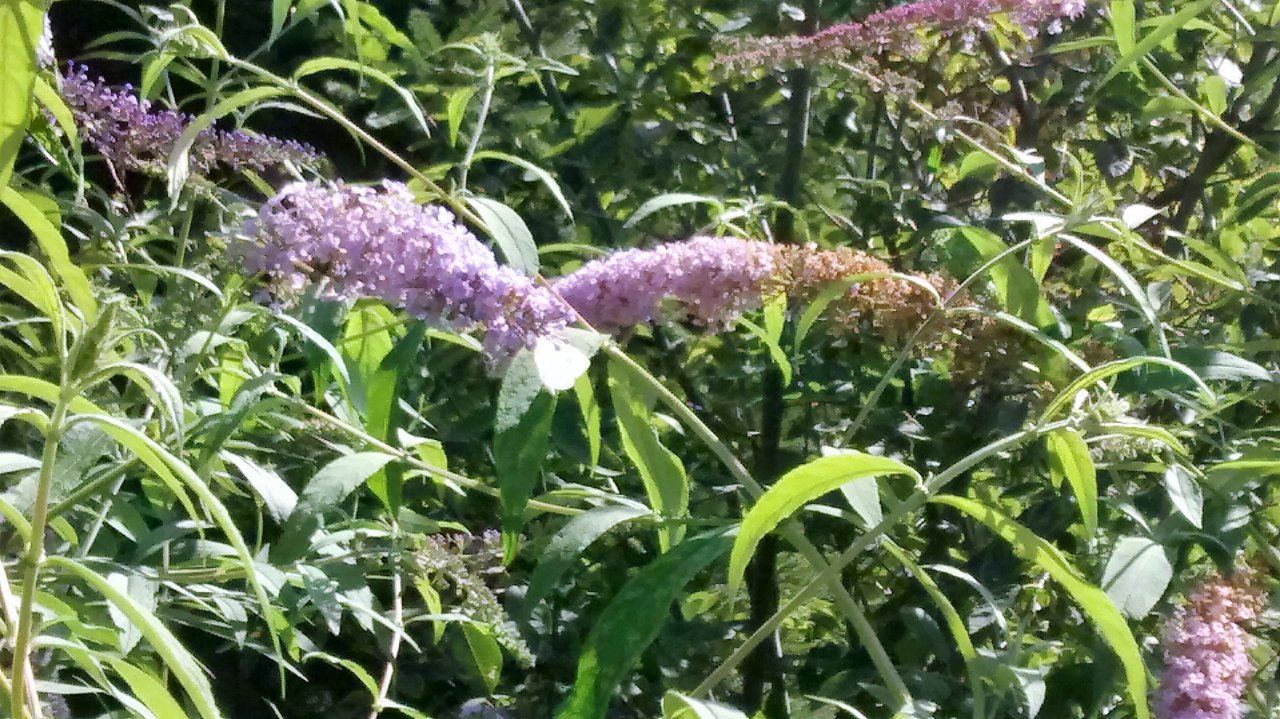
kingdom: Animalia
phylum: Arthropoda
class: Insecta
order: Lepidoptera
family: Pieridae
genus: Pieris
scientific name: Pieris rapae
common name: Cabbage White
